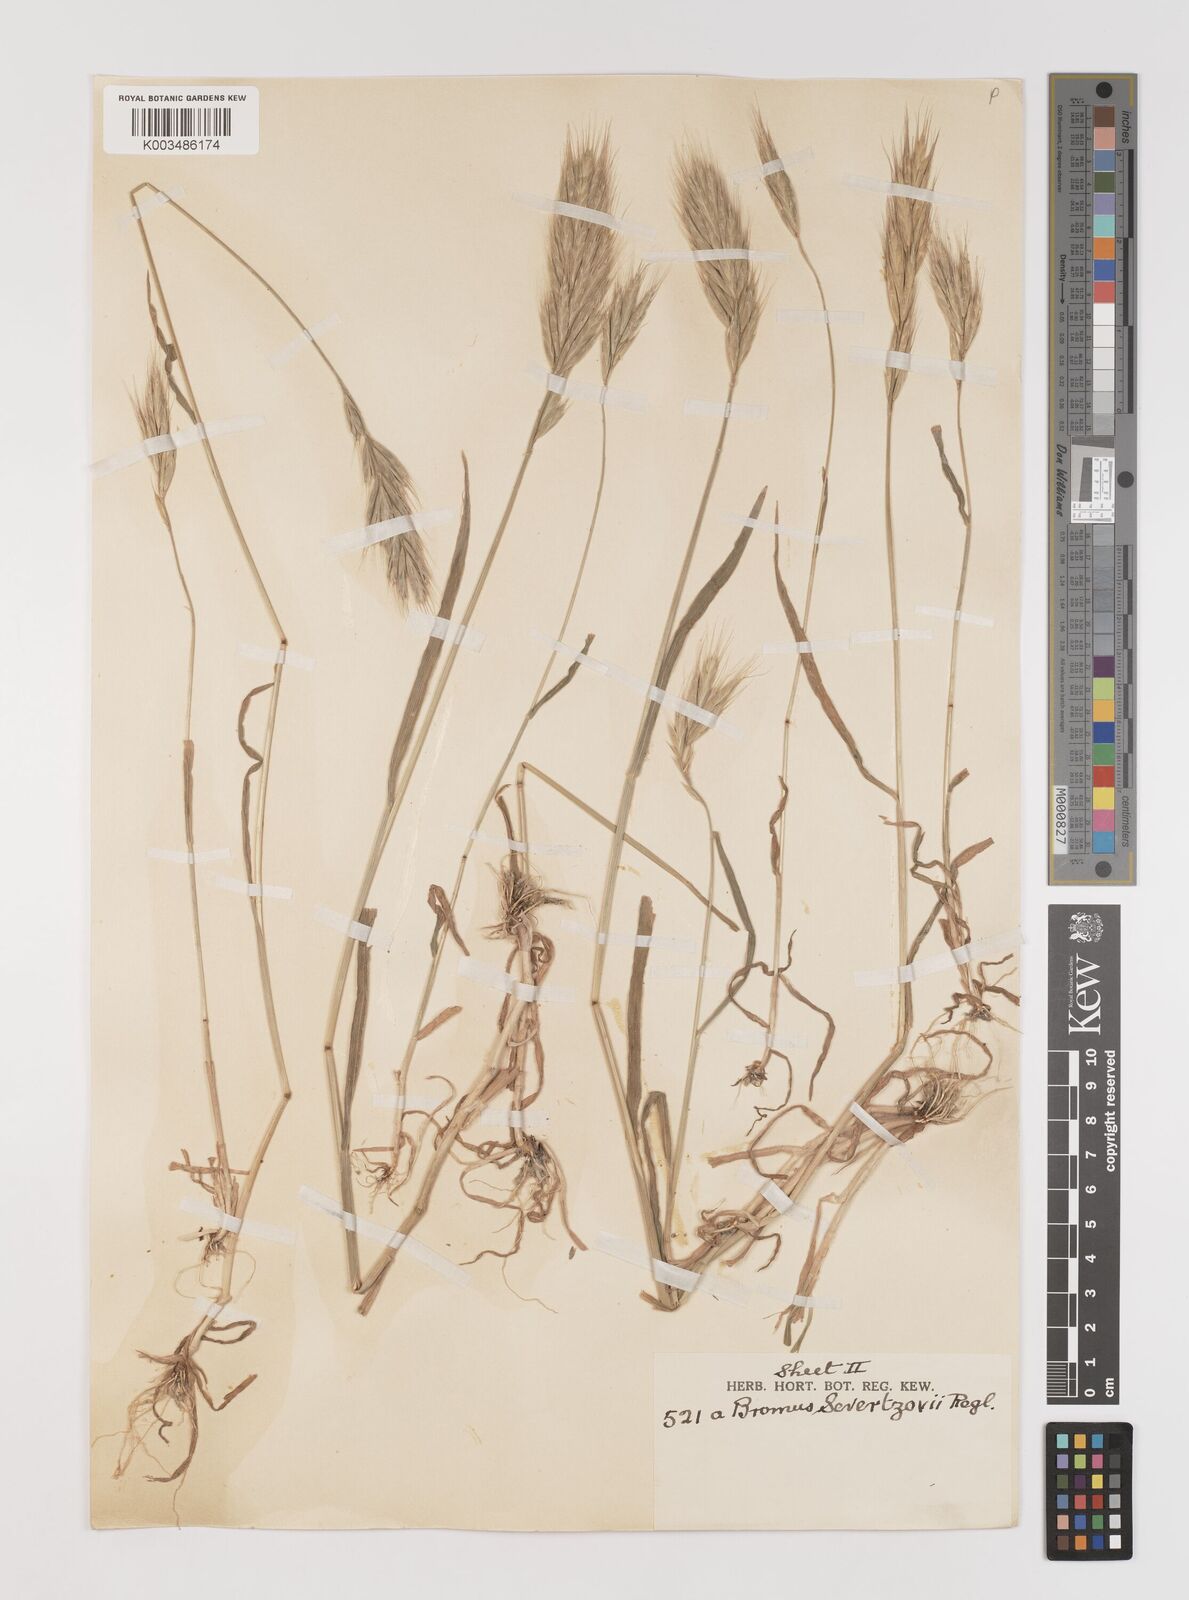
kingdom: Plantae
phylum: Tracheophyta
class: Liliopsida
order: Poales
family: Poaceae
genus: Bromus
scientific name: Bromus sewerzowii
